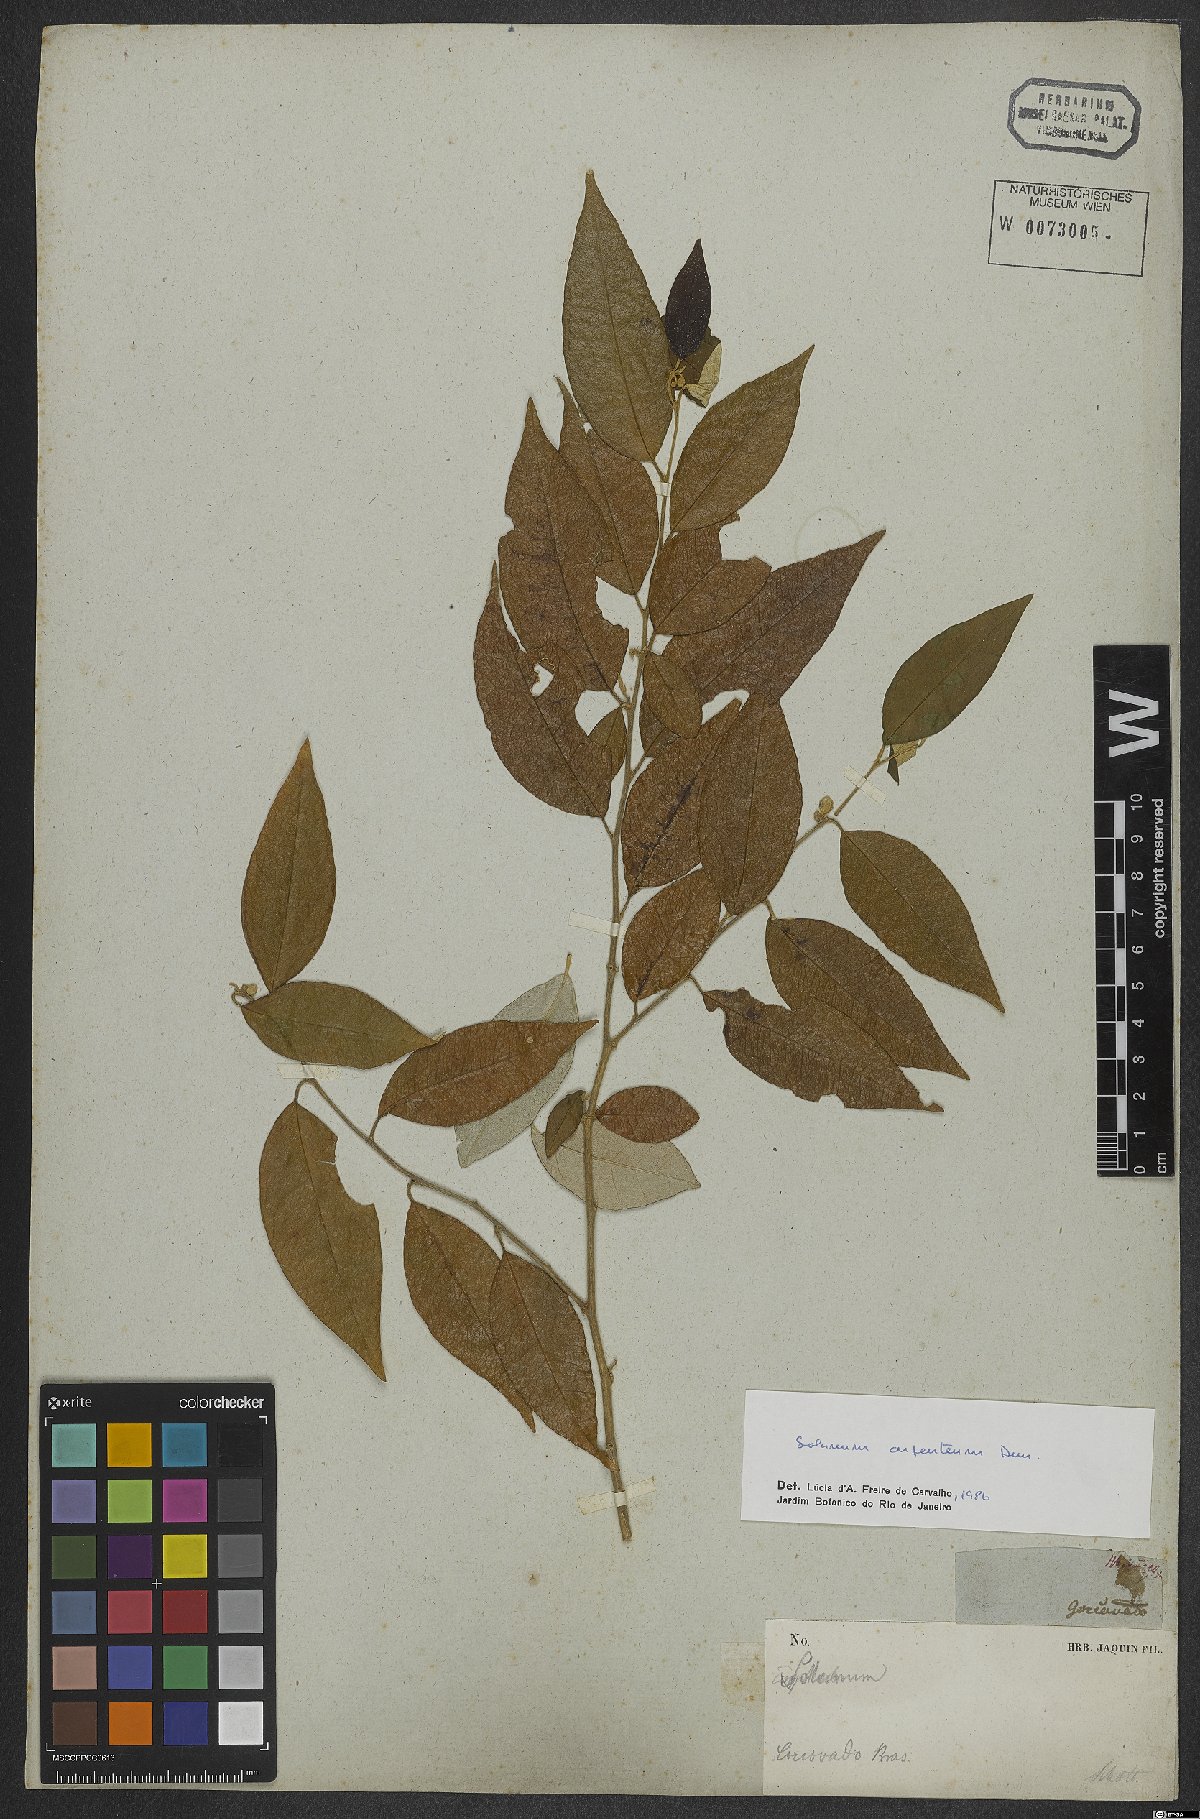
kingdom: Plantae
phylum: Tracheophyta
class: Magnoliopsida
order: Solanales
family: Solanaceae
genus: Solanum
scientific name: Solanum swartzianum
